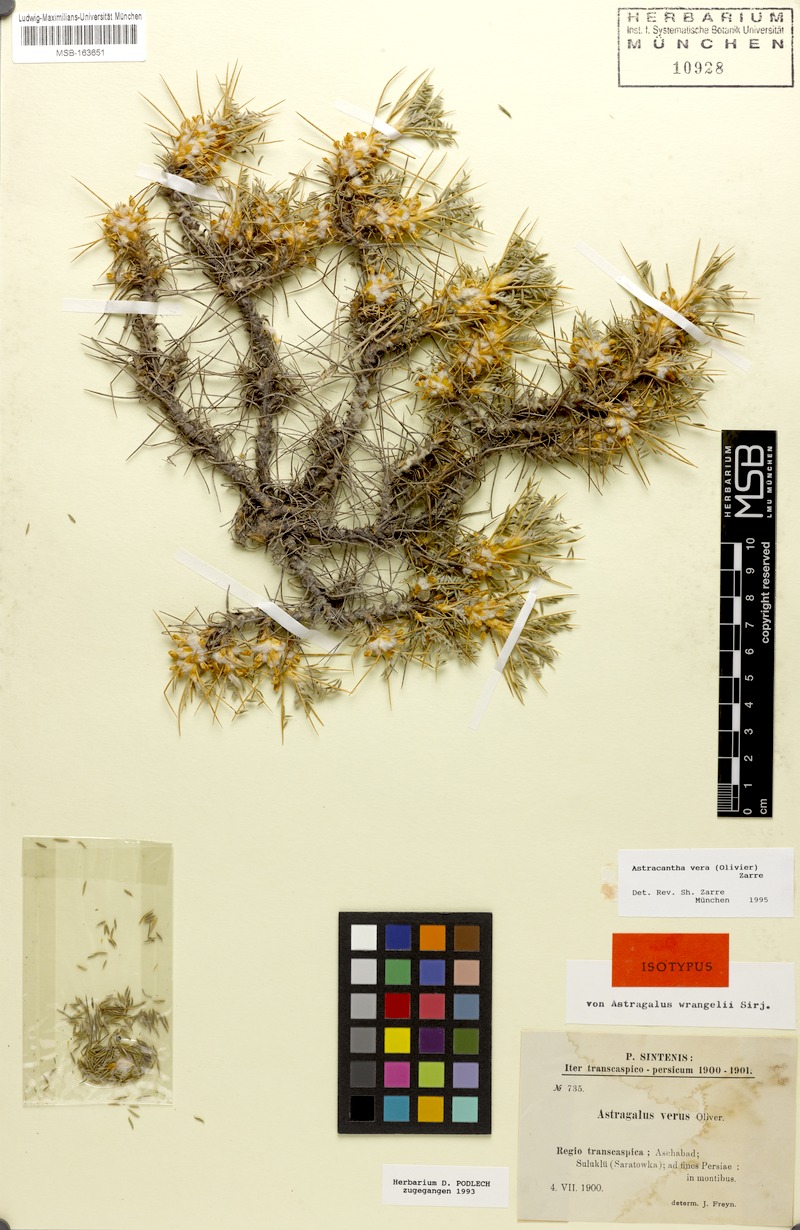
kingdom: Plantae
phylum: Tracheophyta
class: Magnoliopsida
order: Fabales
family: Fabaceae
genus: Astragalus
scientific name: Astragalus verus
